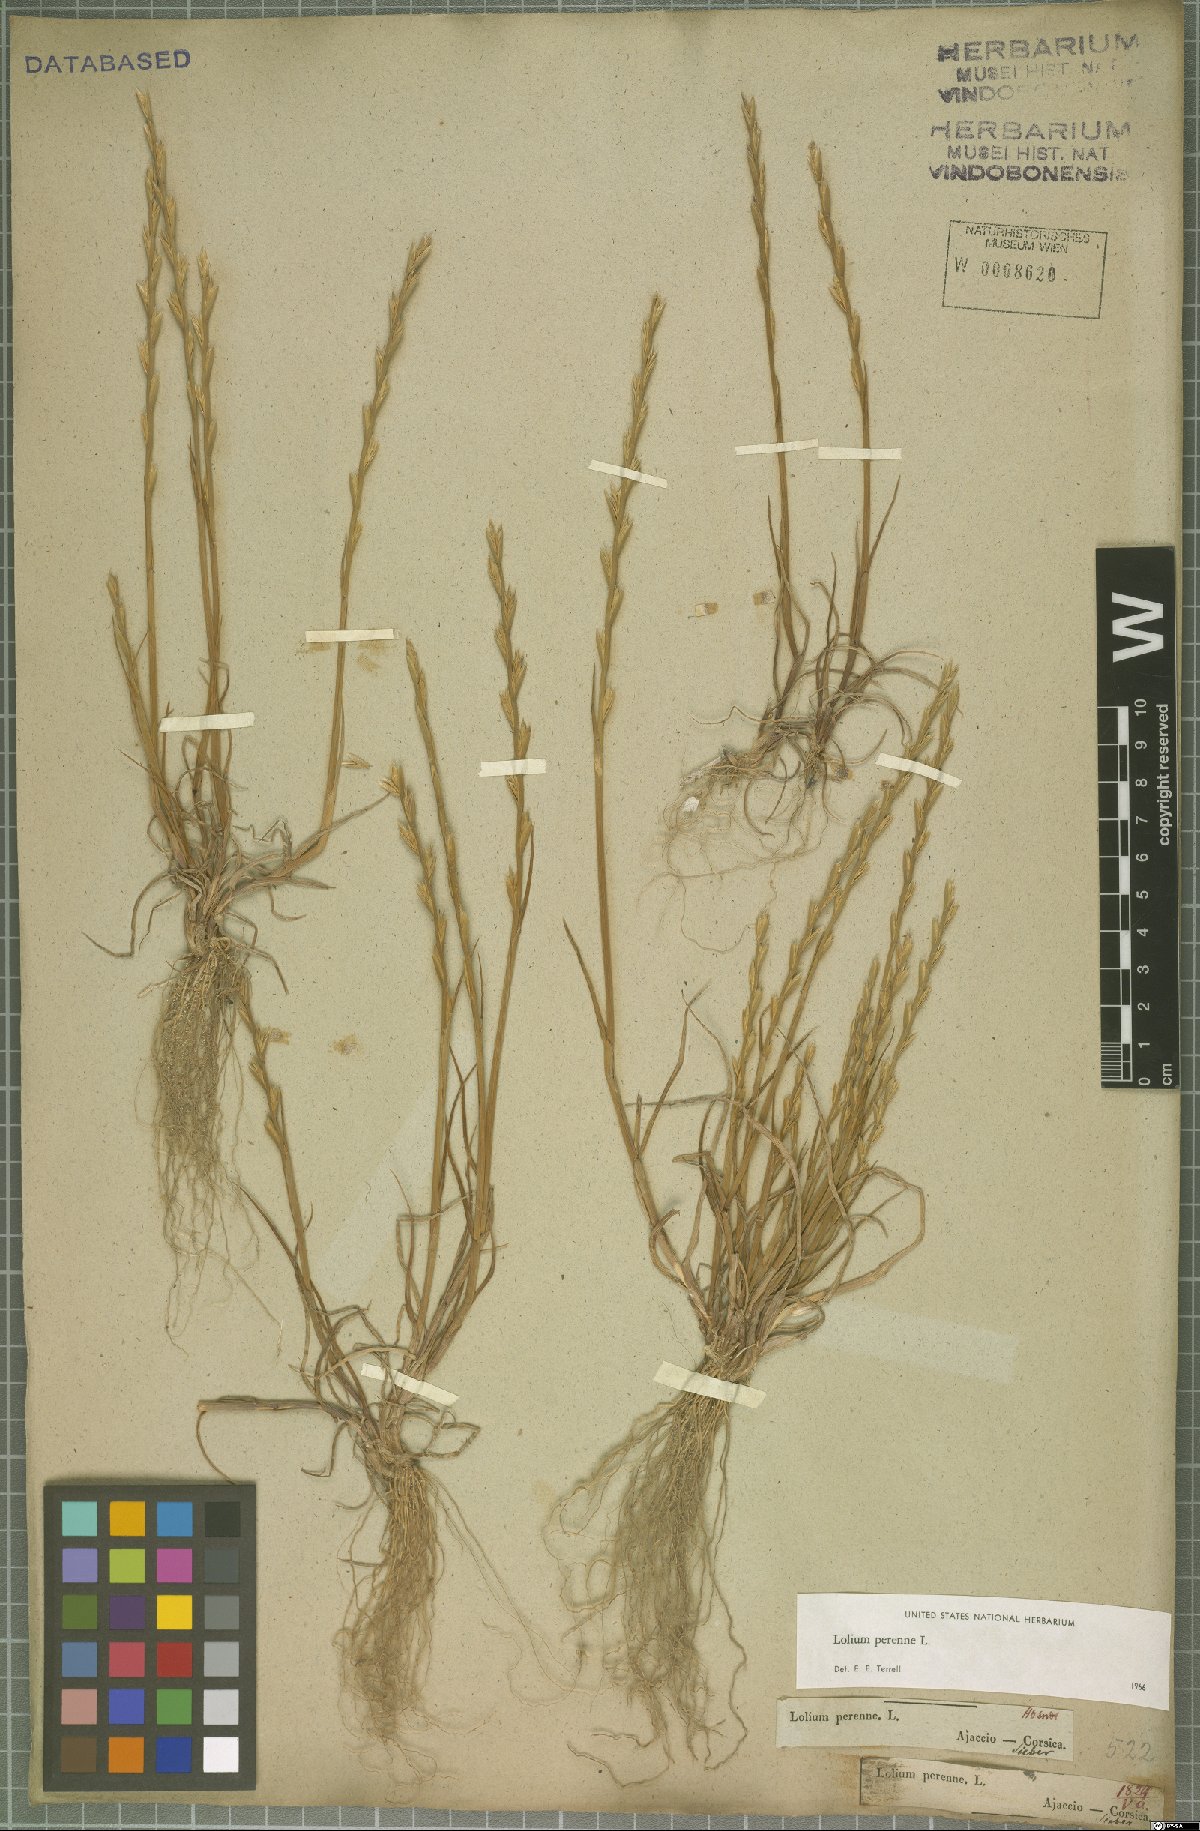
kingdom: Plantae
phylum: Tracheophyta
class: Liliopsida
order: Poales
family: Poaceae
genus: Lolium
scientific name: Lolium perenne
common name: Perennial ryegrass
